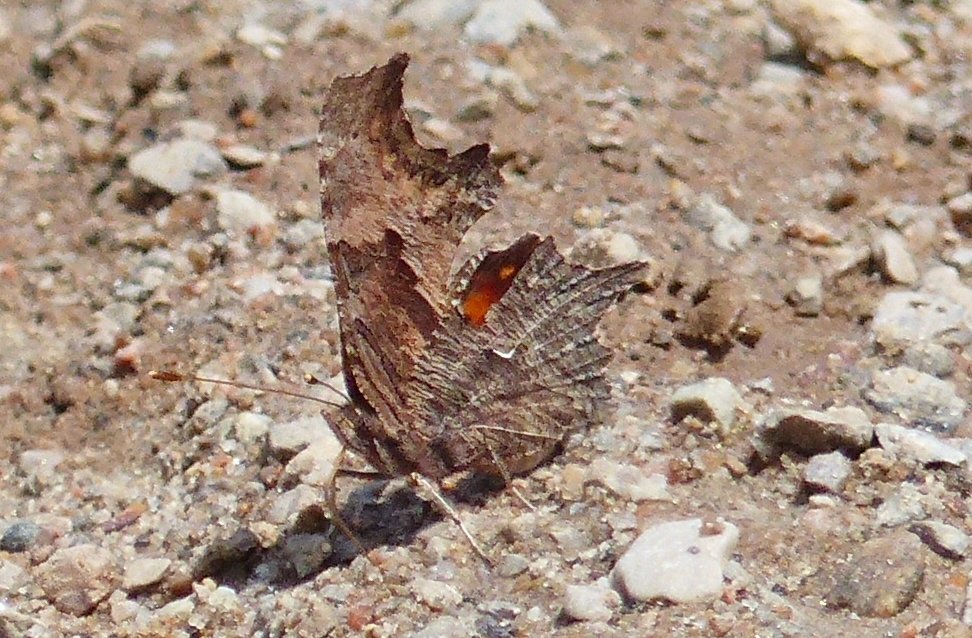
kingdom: Animalia
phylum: Arthropoda
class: Insecta
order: Lepidoptera
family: Nymphalidae
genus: Polygonia
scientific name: Polygonia progne
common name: Gray Comma
